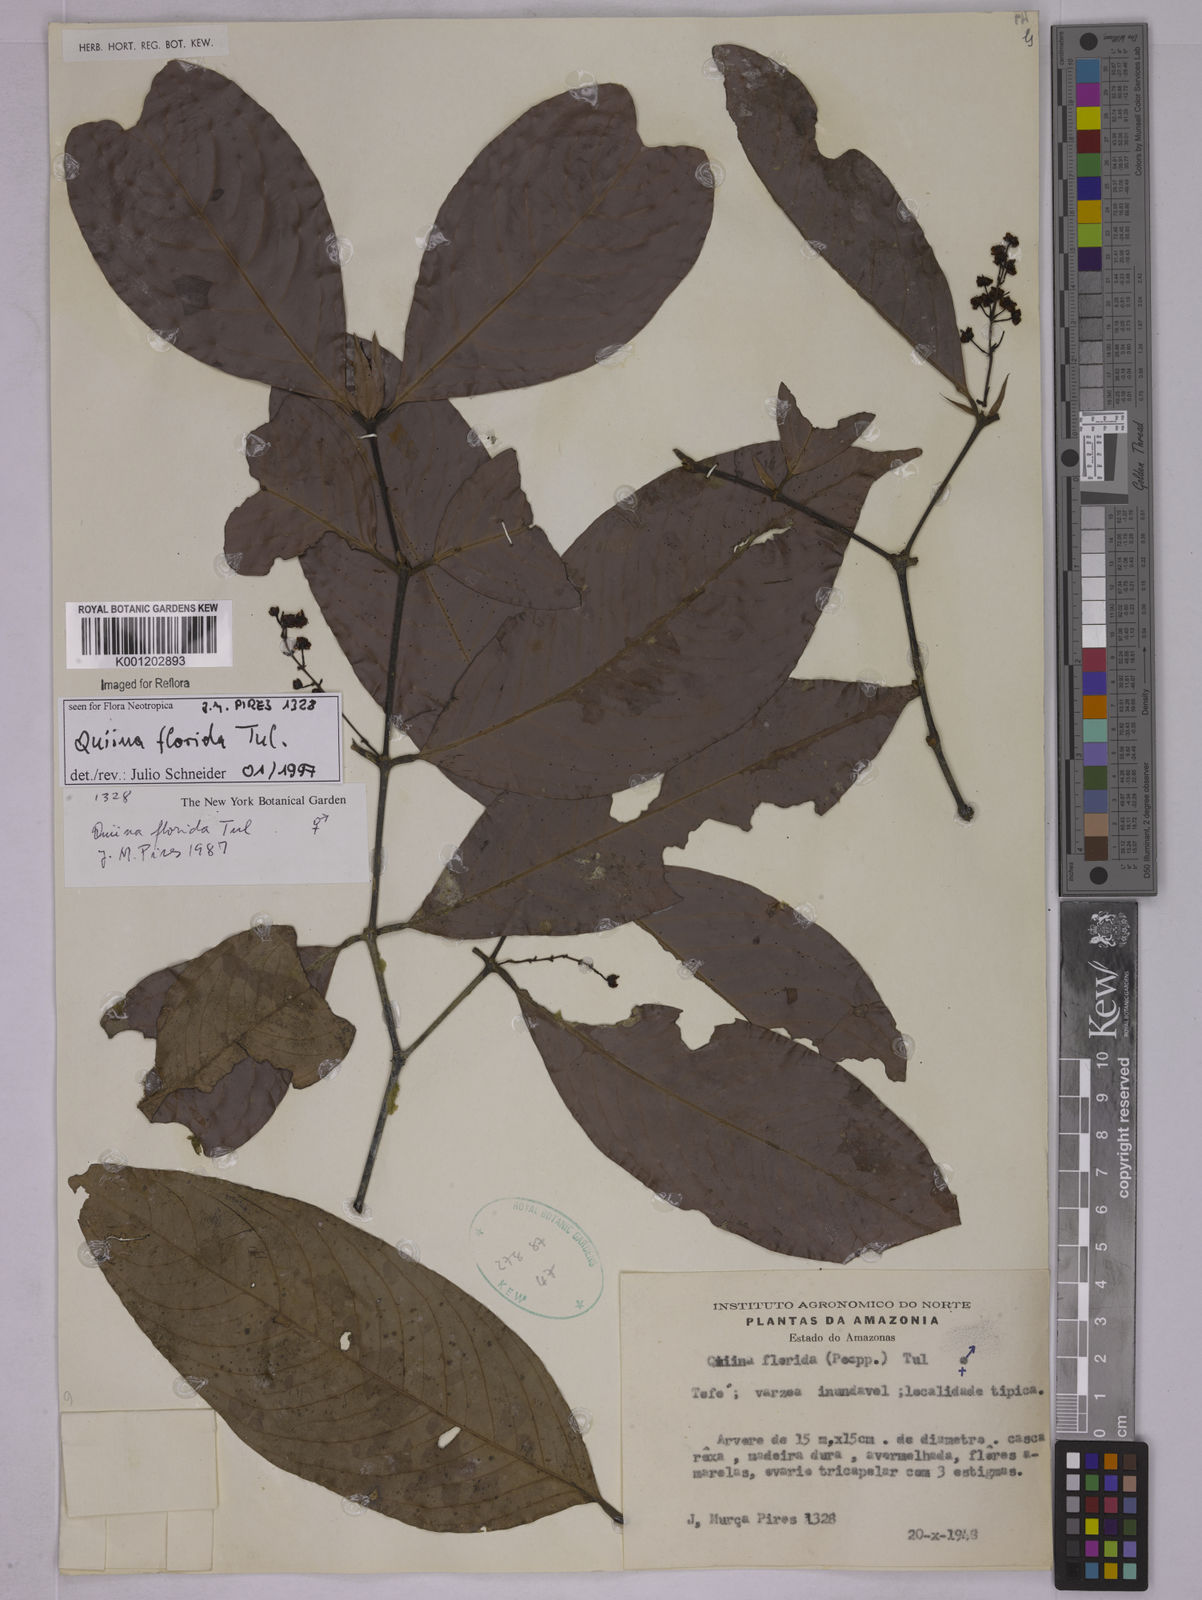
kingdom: Plantae
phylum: Tracheophyta
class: Magnoliopsida
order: Malpighiales
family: Quiinaceae
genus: Quiina
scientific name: Quiina florida
